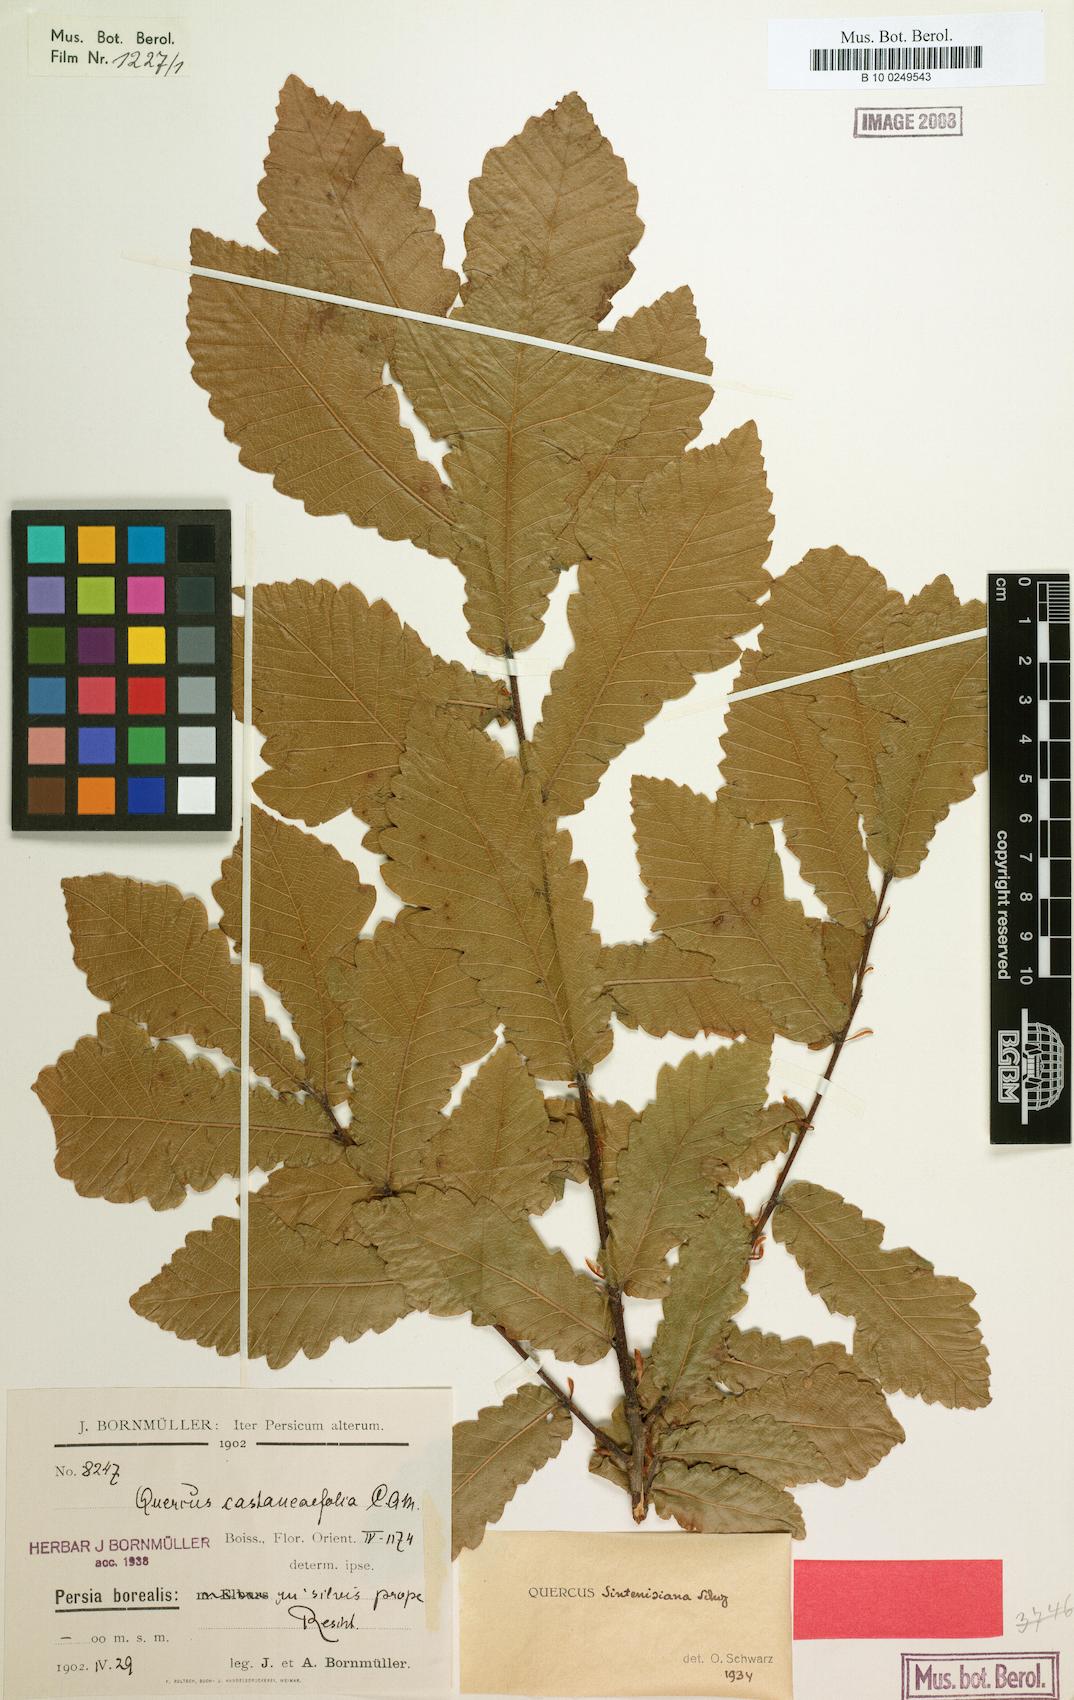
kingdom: Plantae
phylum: Tracheophyta
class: Magnoliopsida
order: Fagales
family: Fagaceae
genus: Quercus
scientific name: Quercus castaneifolia
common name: Chestnut-leaved oak
